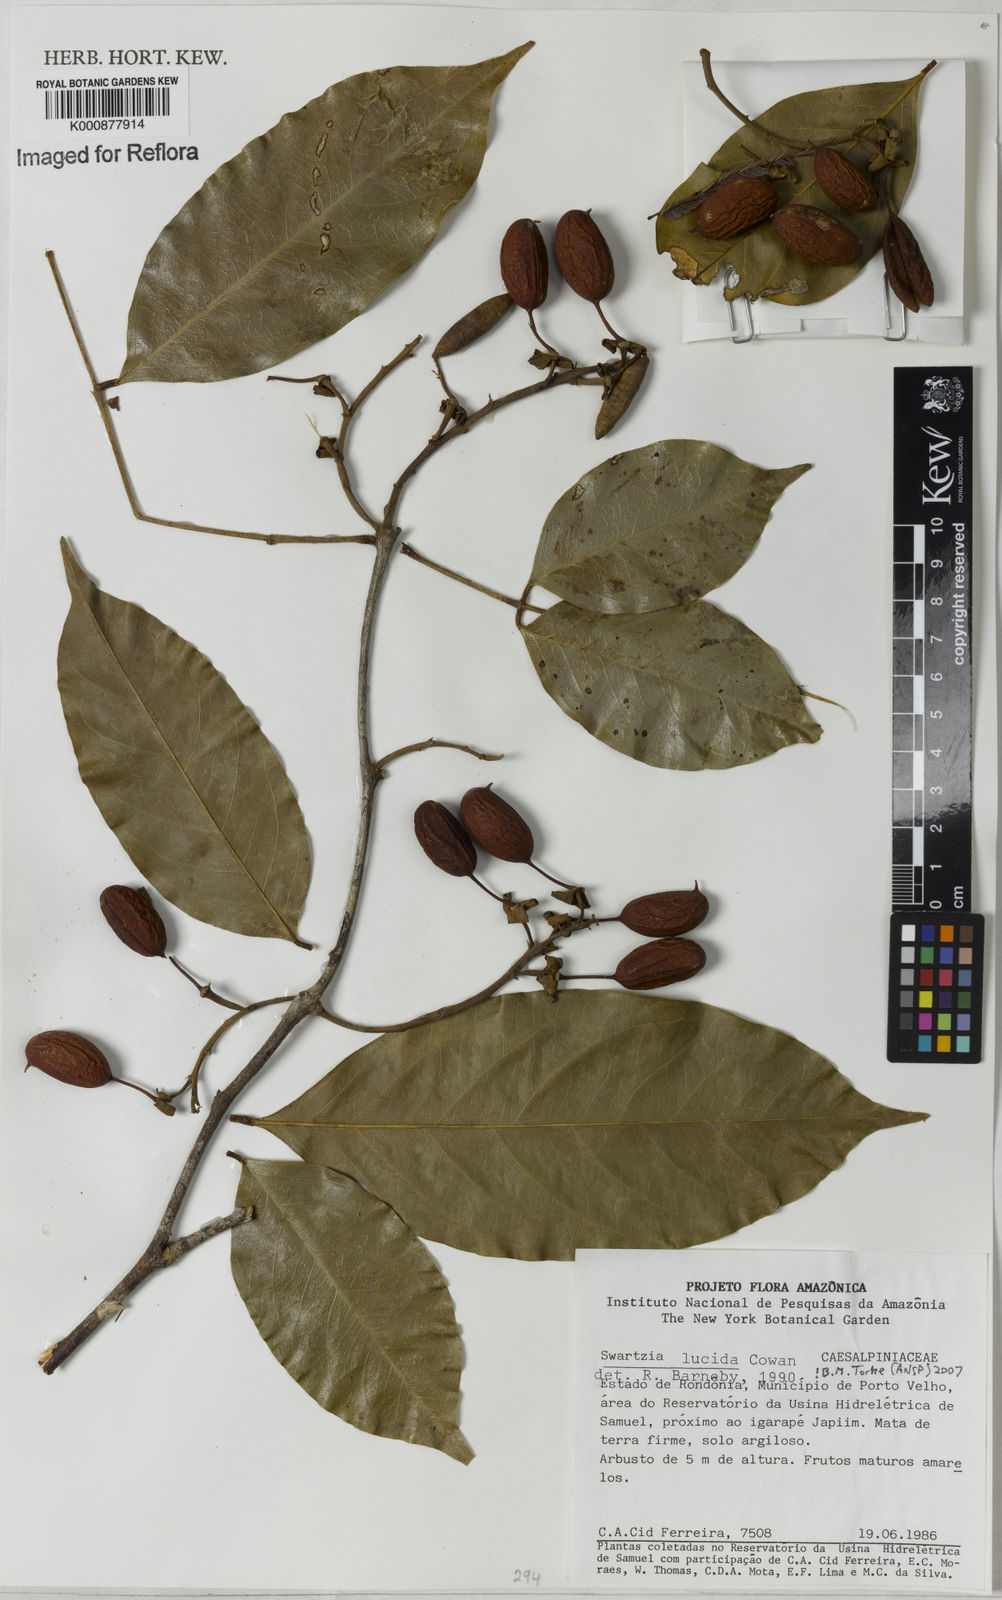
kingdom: Plantae
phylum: Tracheophyta
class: Magnoliopsida
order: Fabales
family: Fabaceae
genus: Swartzia
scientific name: Swartzia lucida
